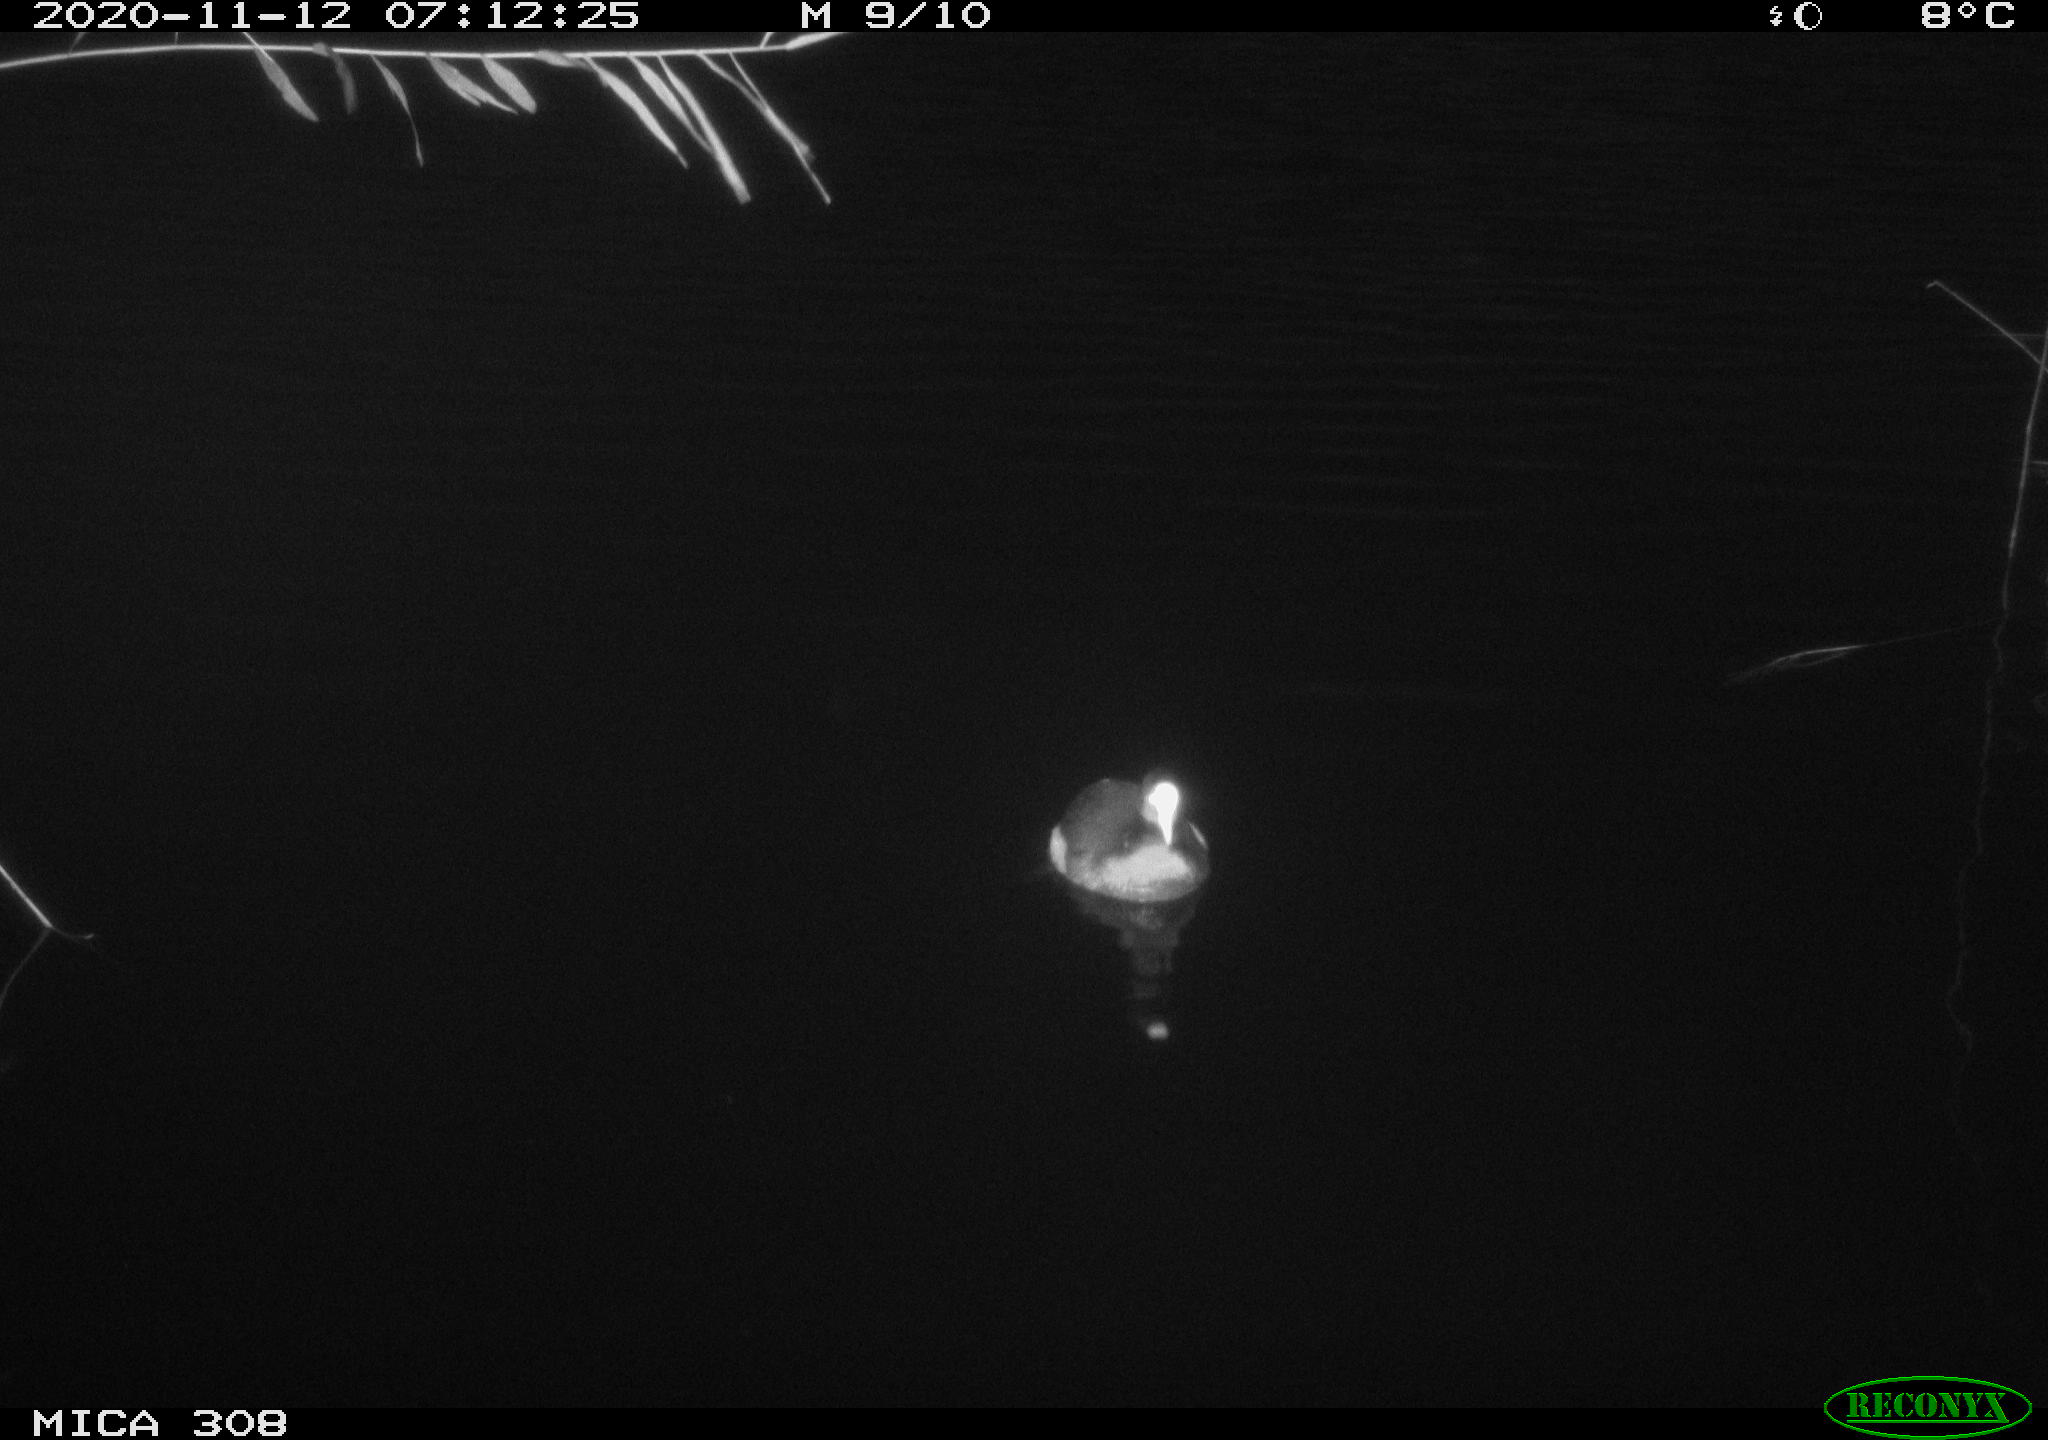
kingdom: Animalia
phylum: Chordata
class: Aves
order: Gruiformes
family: Rallidae
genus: Fulica
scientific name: Fulica atra
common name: Eurasian coot
